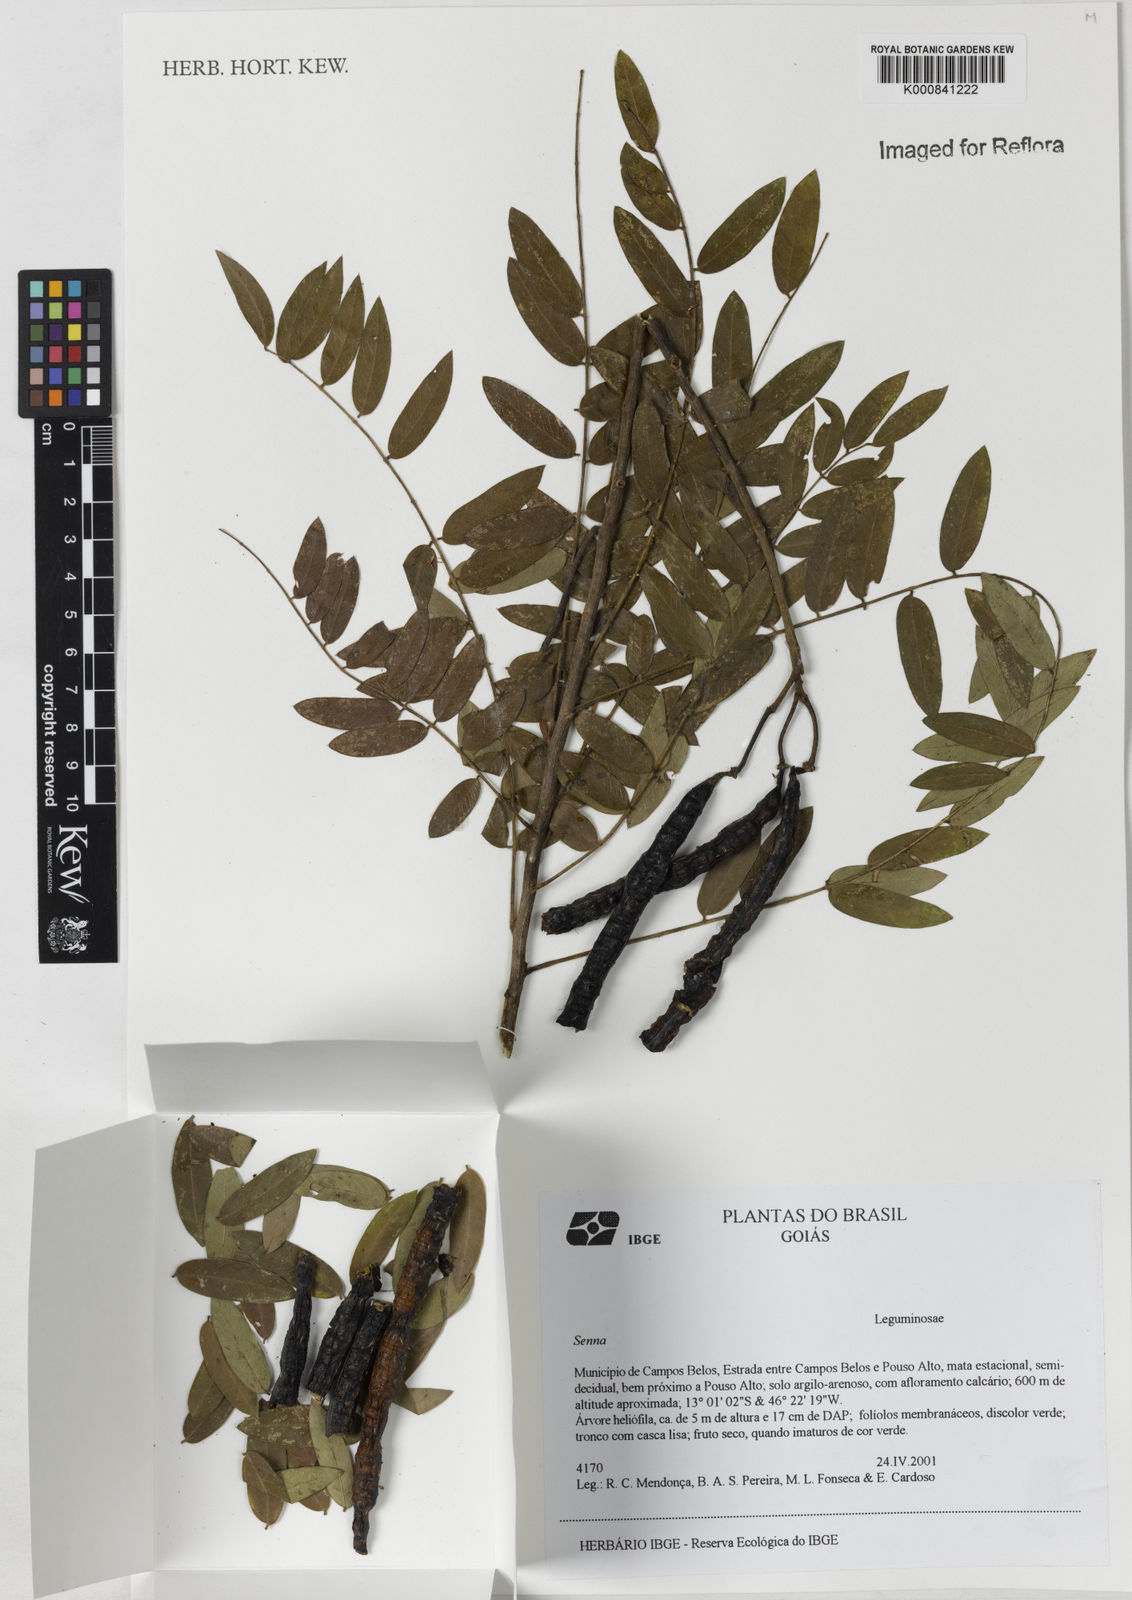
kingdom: Plantae
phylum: Tracheophyta
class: Magnoliopsida
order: Fabales
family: Fabaceae
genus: Senna
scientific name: Senna
